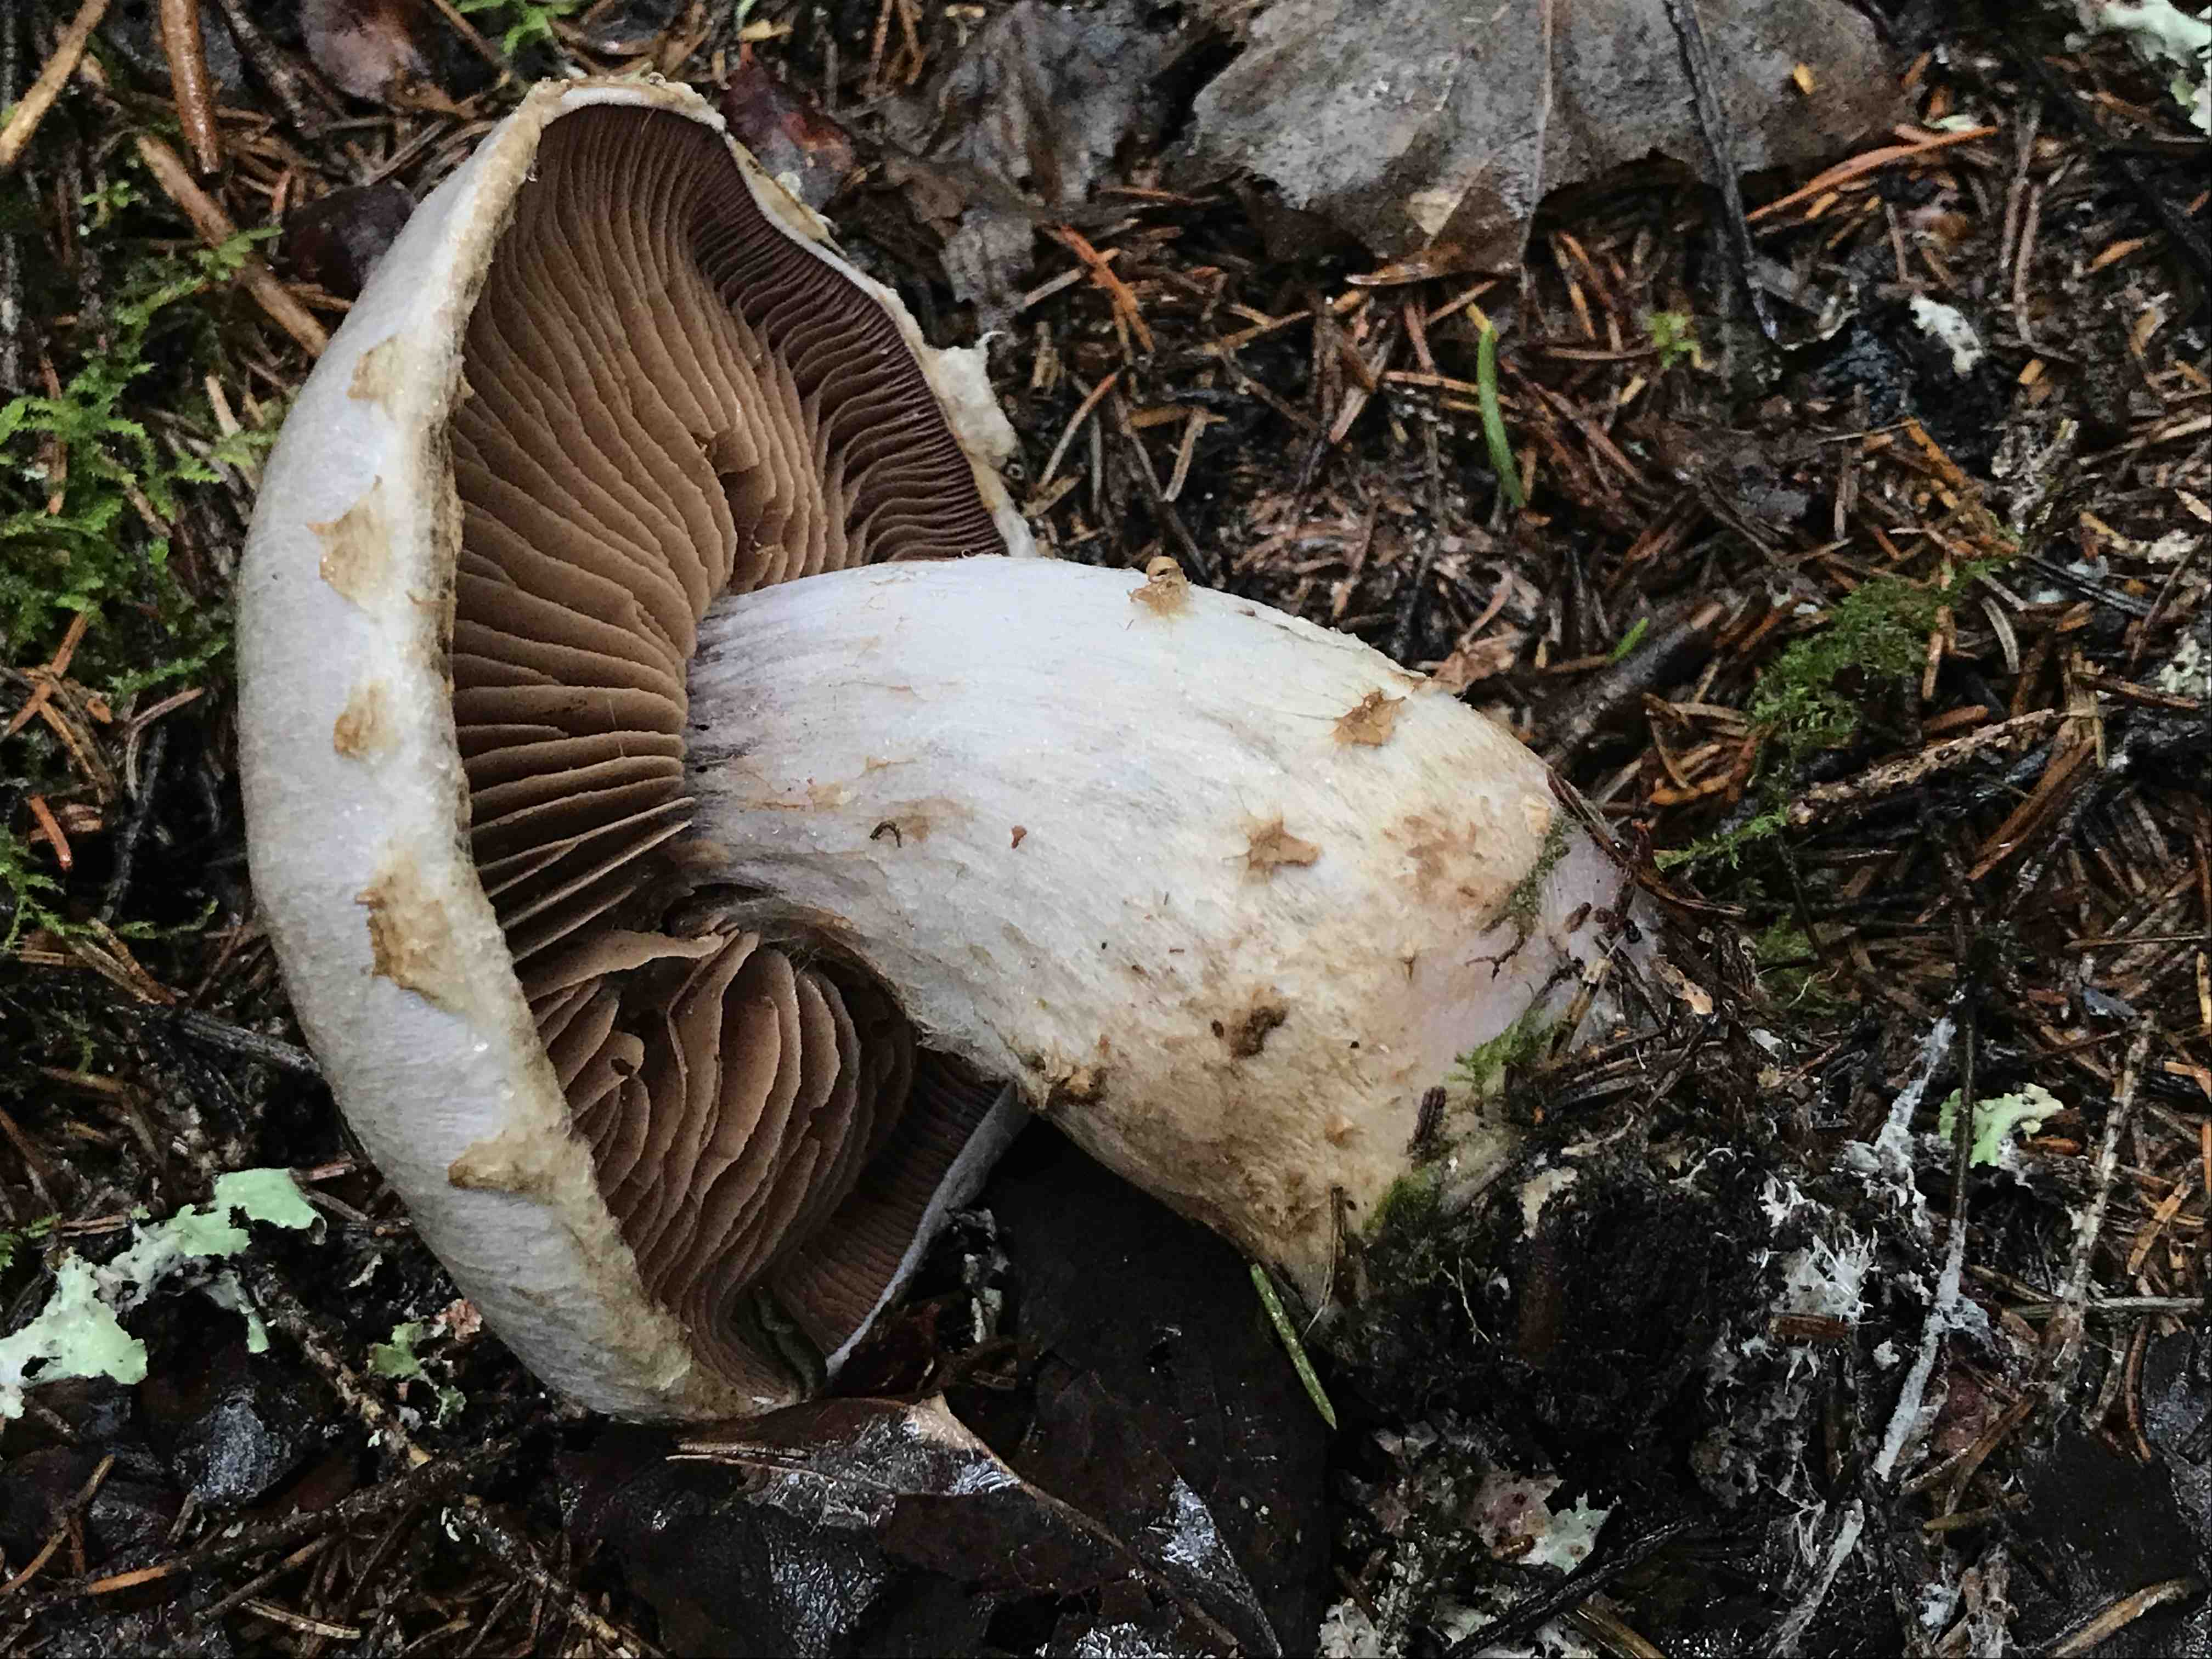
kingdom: Fungi
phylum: Basidiomycota
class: Agaricomycetes
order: Agaricales
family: Cortinariaceae
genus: Cortinarius
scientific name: Cortinarius
